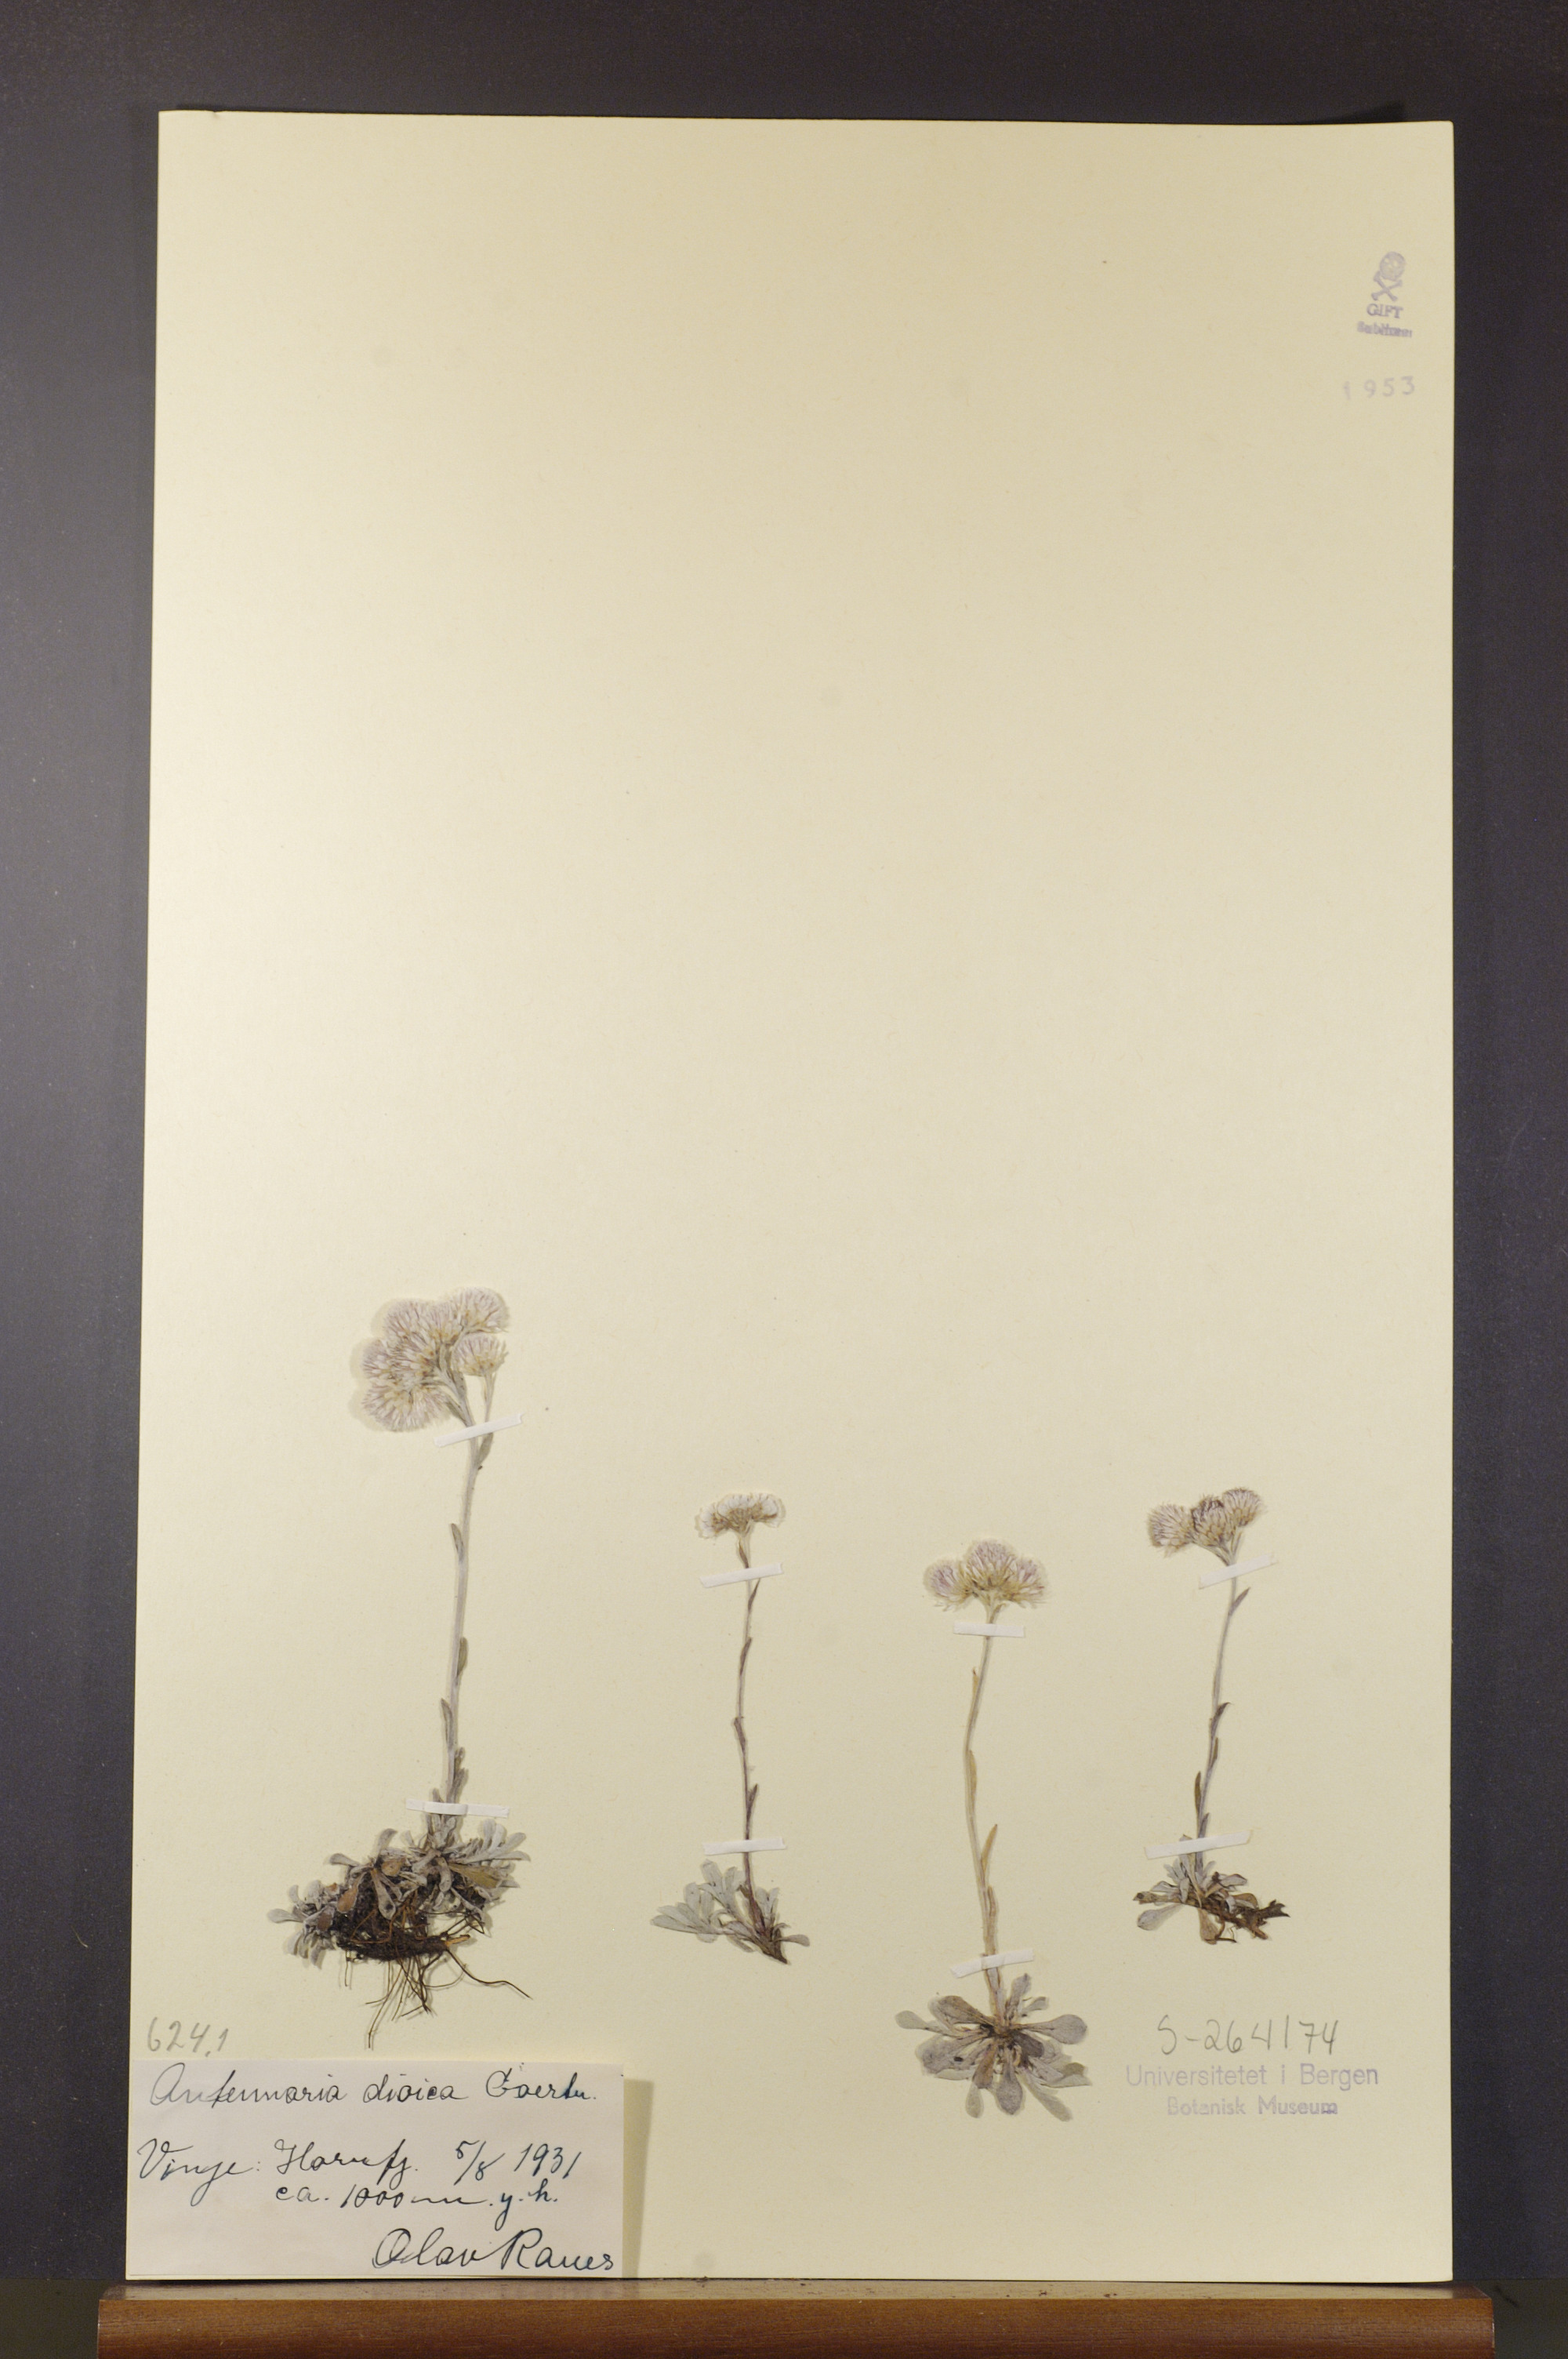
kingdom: Plantae
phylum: Tracheophyta
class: Magnoliopsida
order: Asterales
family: Asteraceae
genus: Antennaria
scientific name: Antennaria dioica
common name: Mountain everlasting
